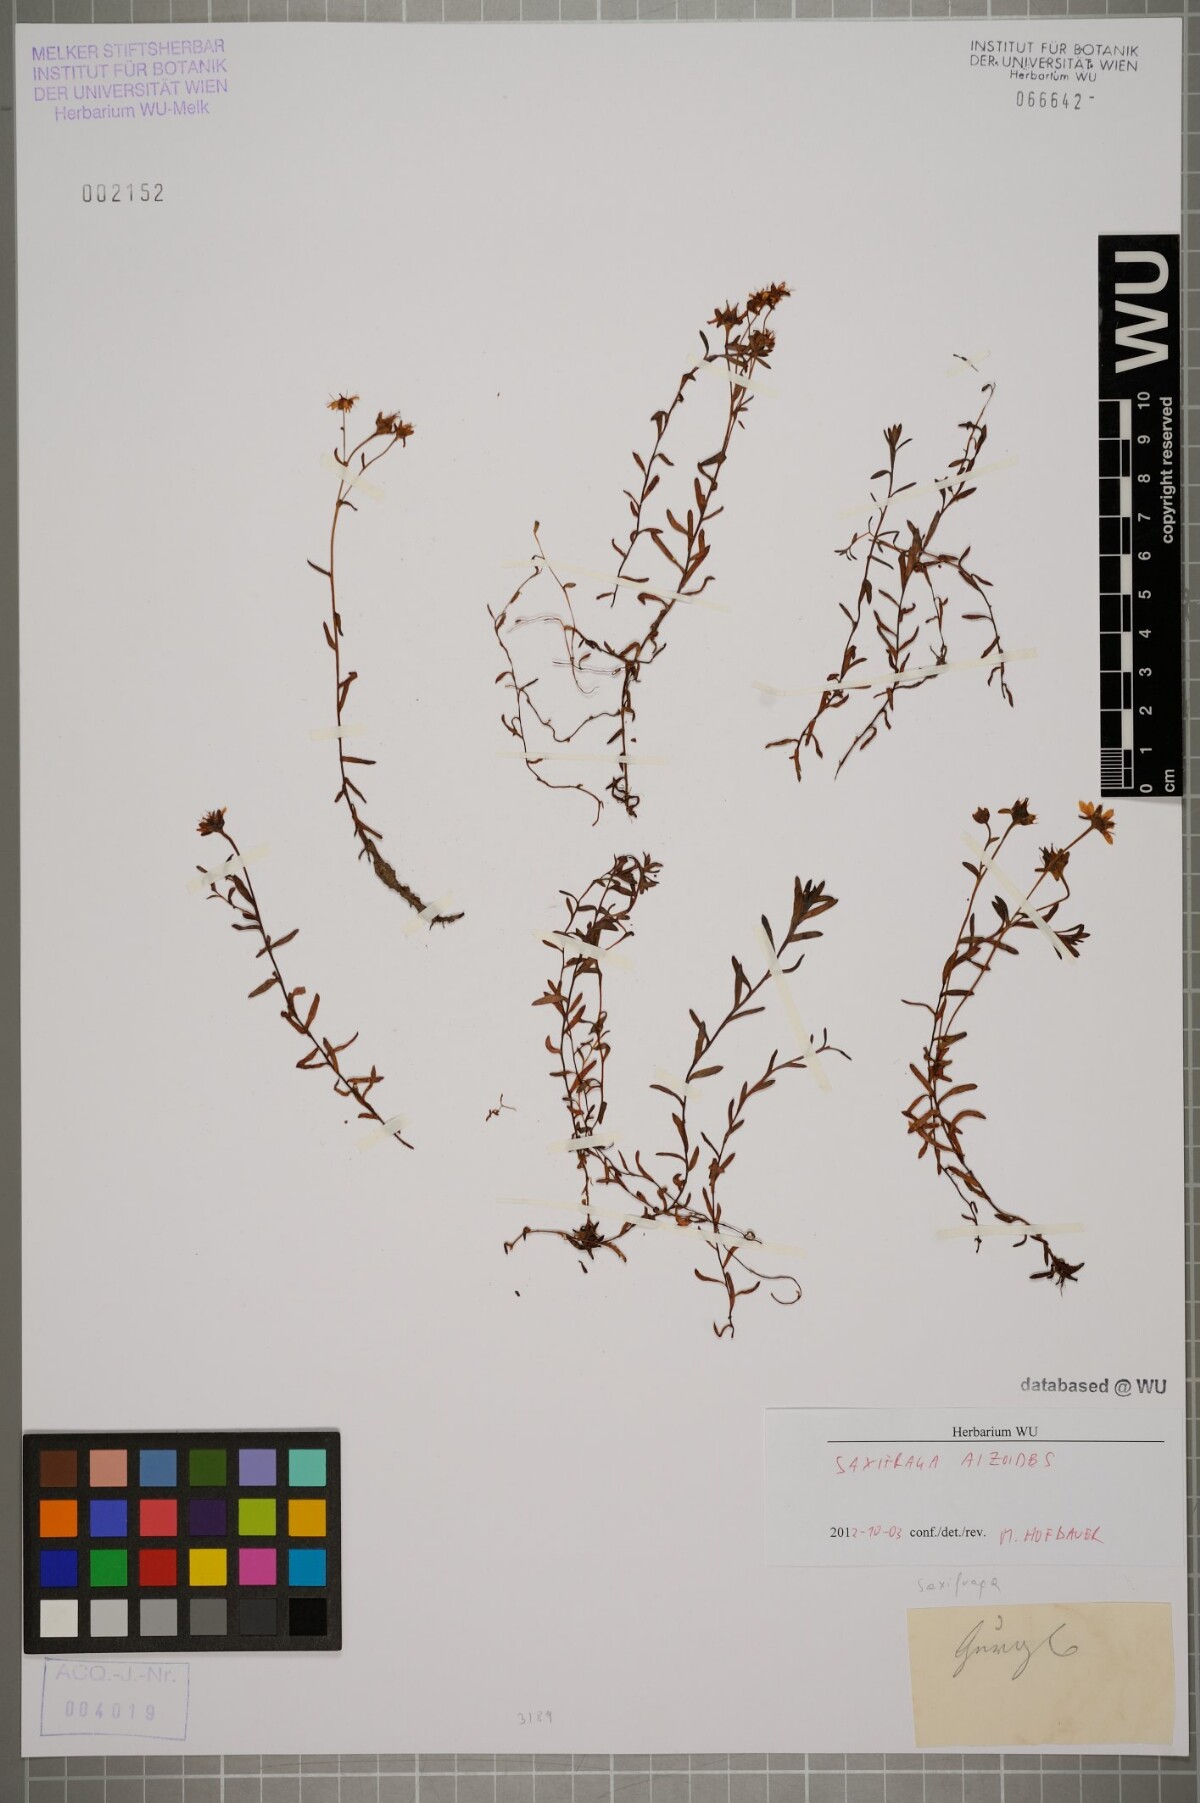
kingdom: Plantae
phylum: Tracheophyta
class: Magnoliopsida
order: Saxifragales
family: Saxifragaceae
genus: Saxifraga
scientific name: Saxifraga aizoides
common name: Yellow mountain saxifrage
